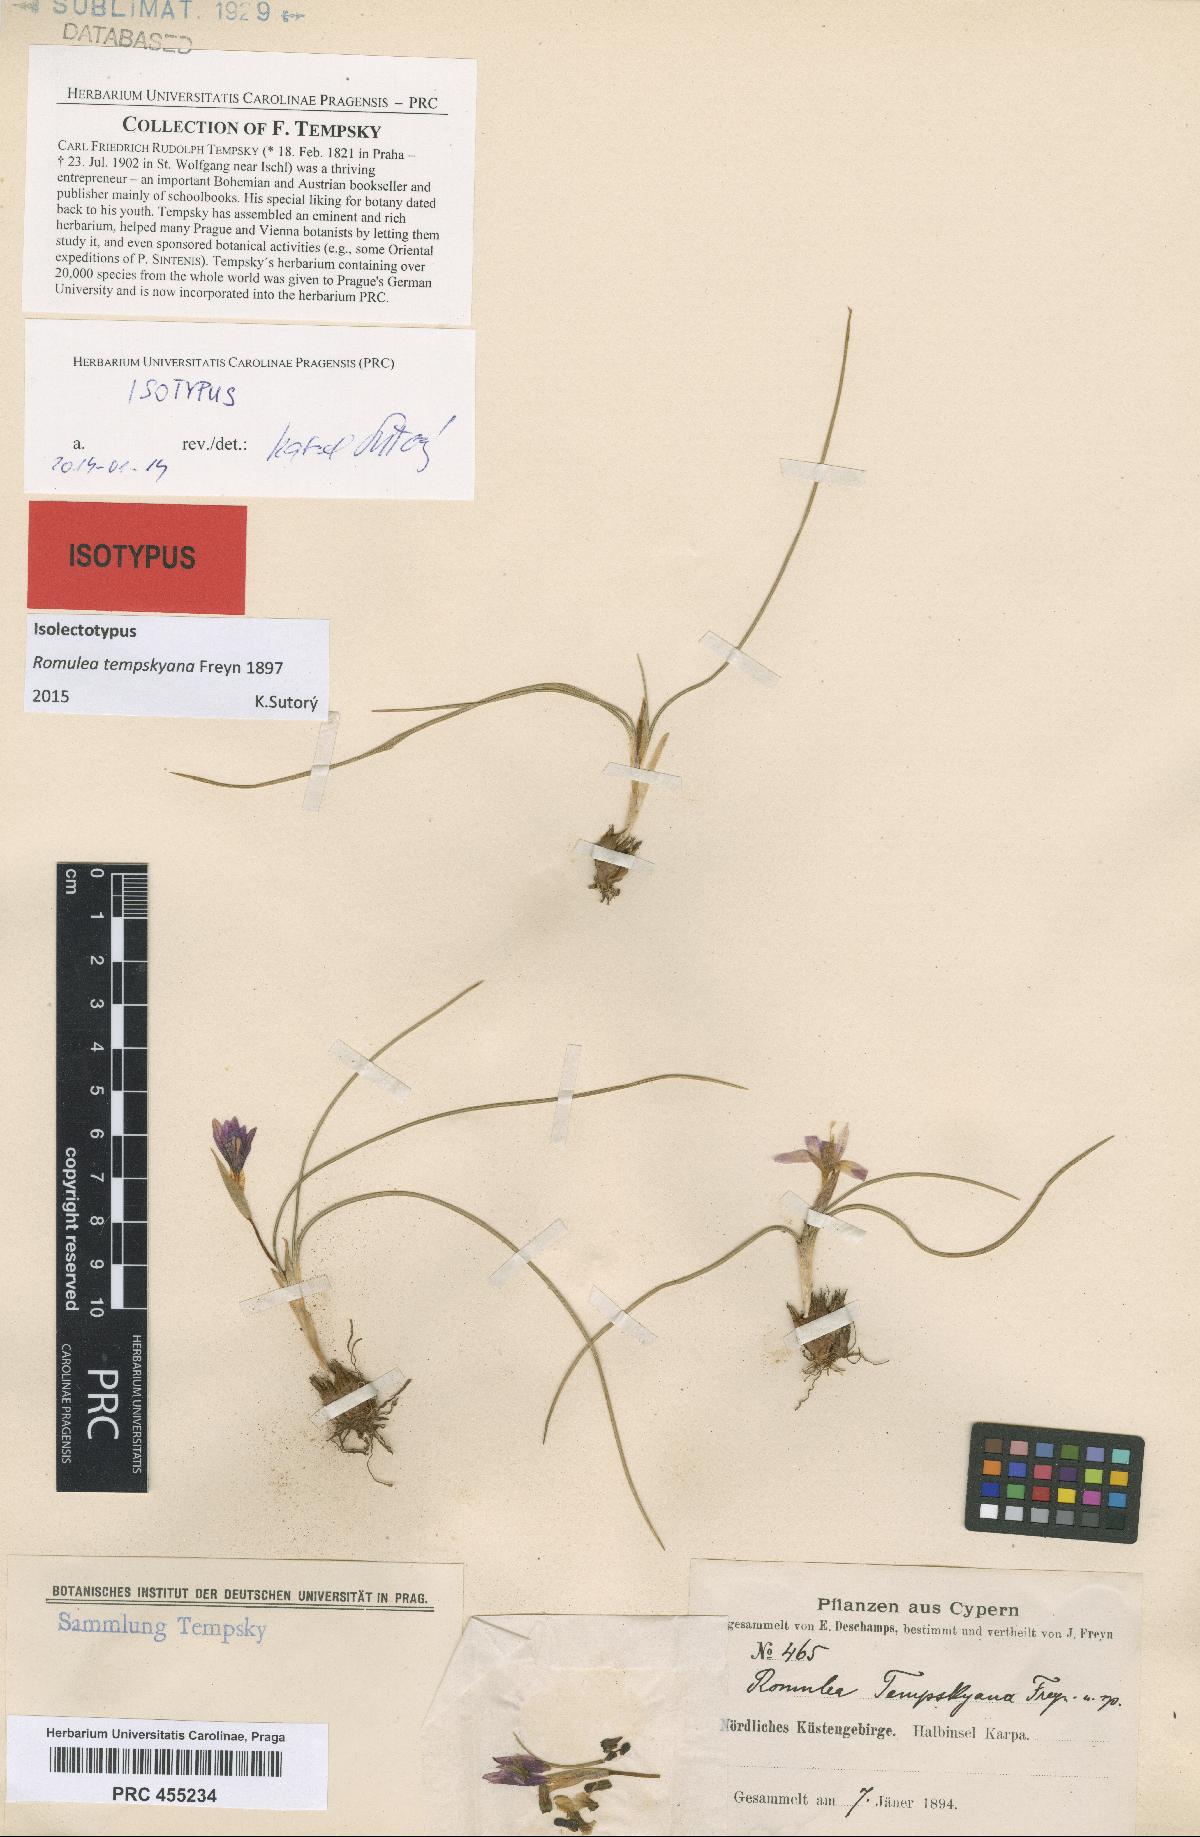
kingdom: Plantae
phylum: Tracheophyta
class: Liliopsida
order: Asparagales
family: Iridaceae
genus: Romulea
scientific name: Romulea tempskyana
